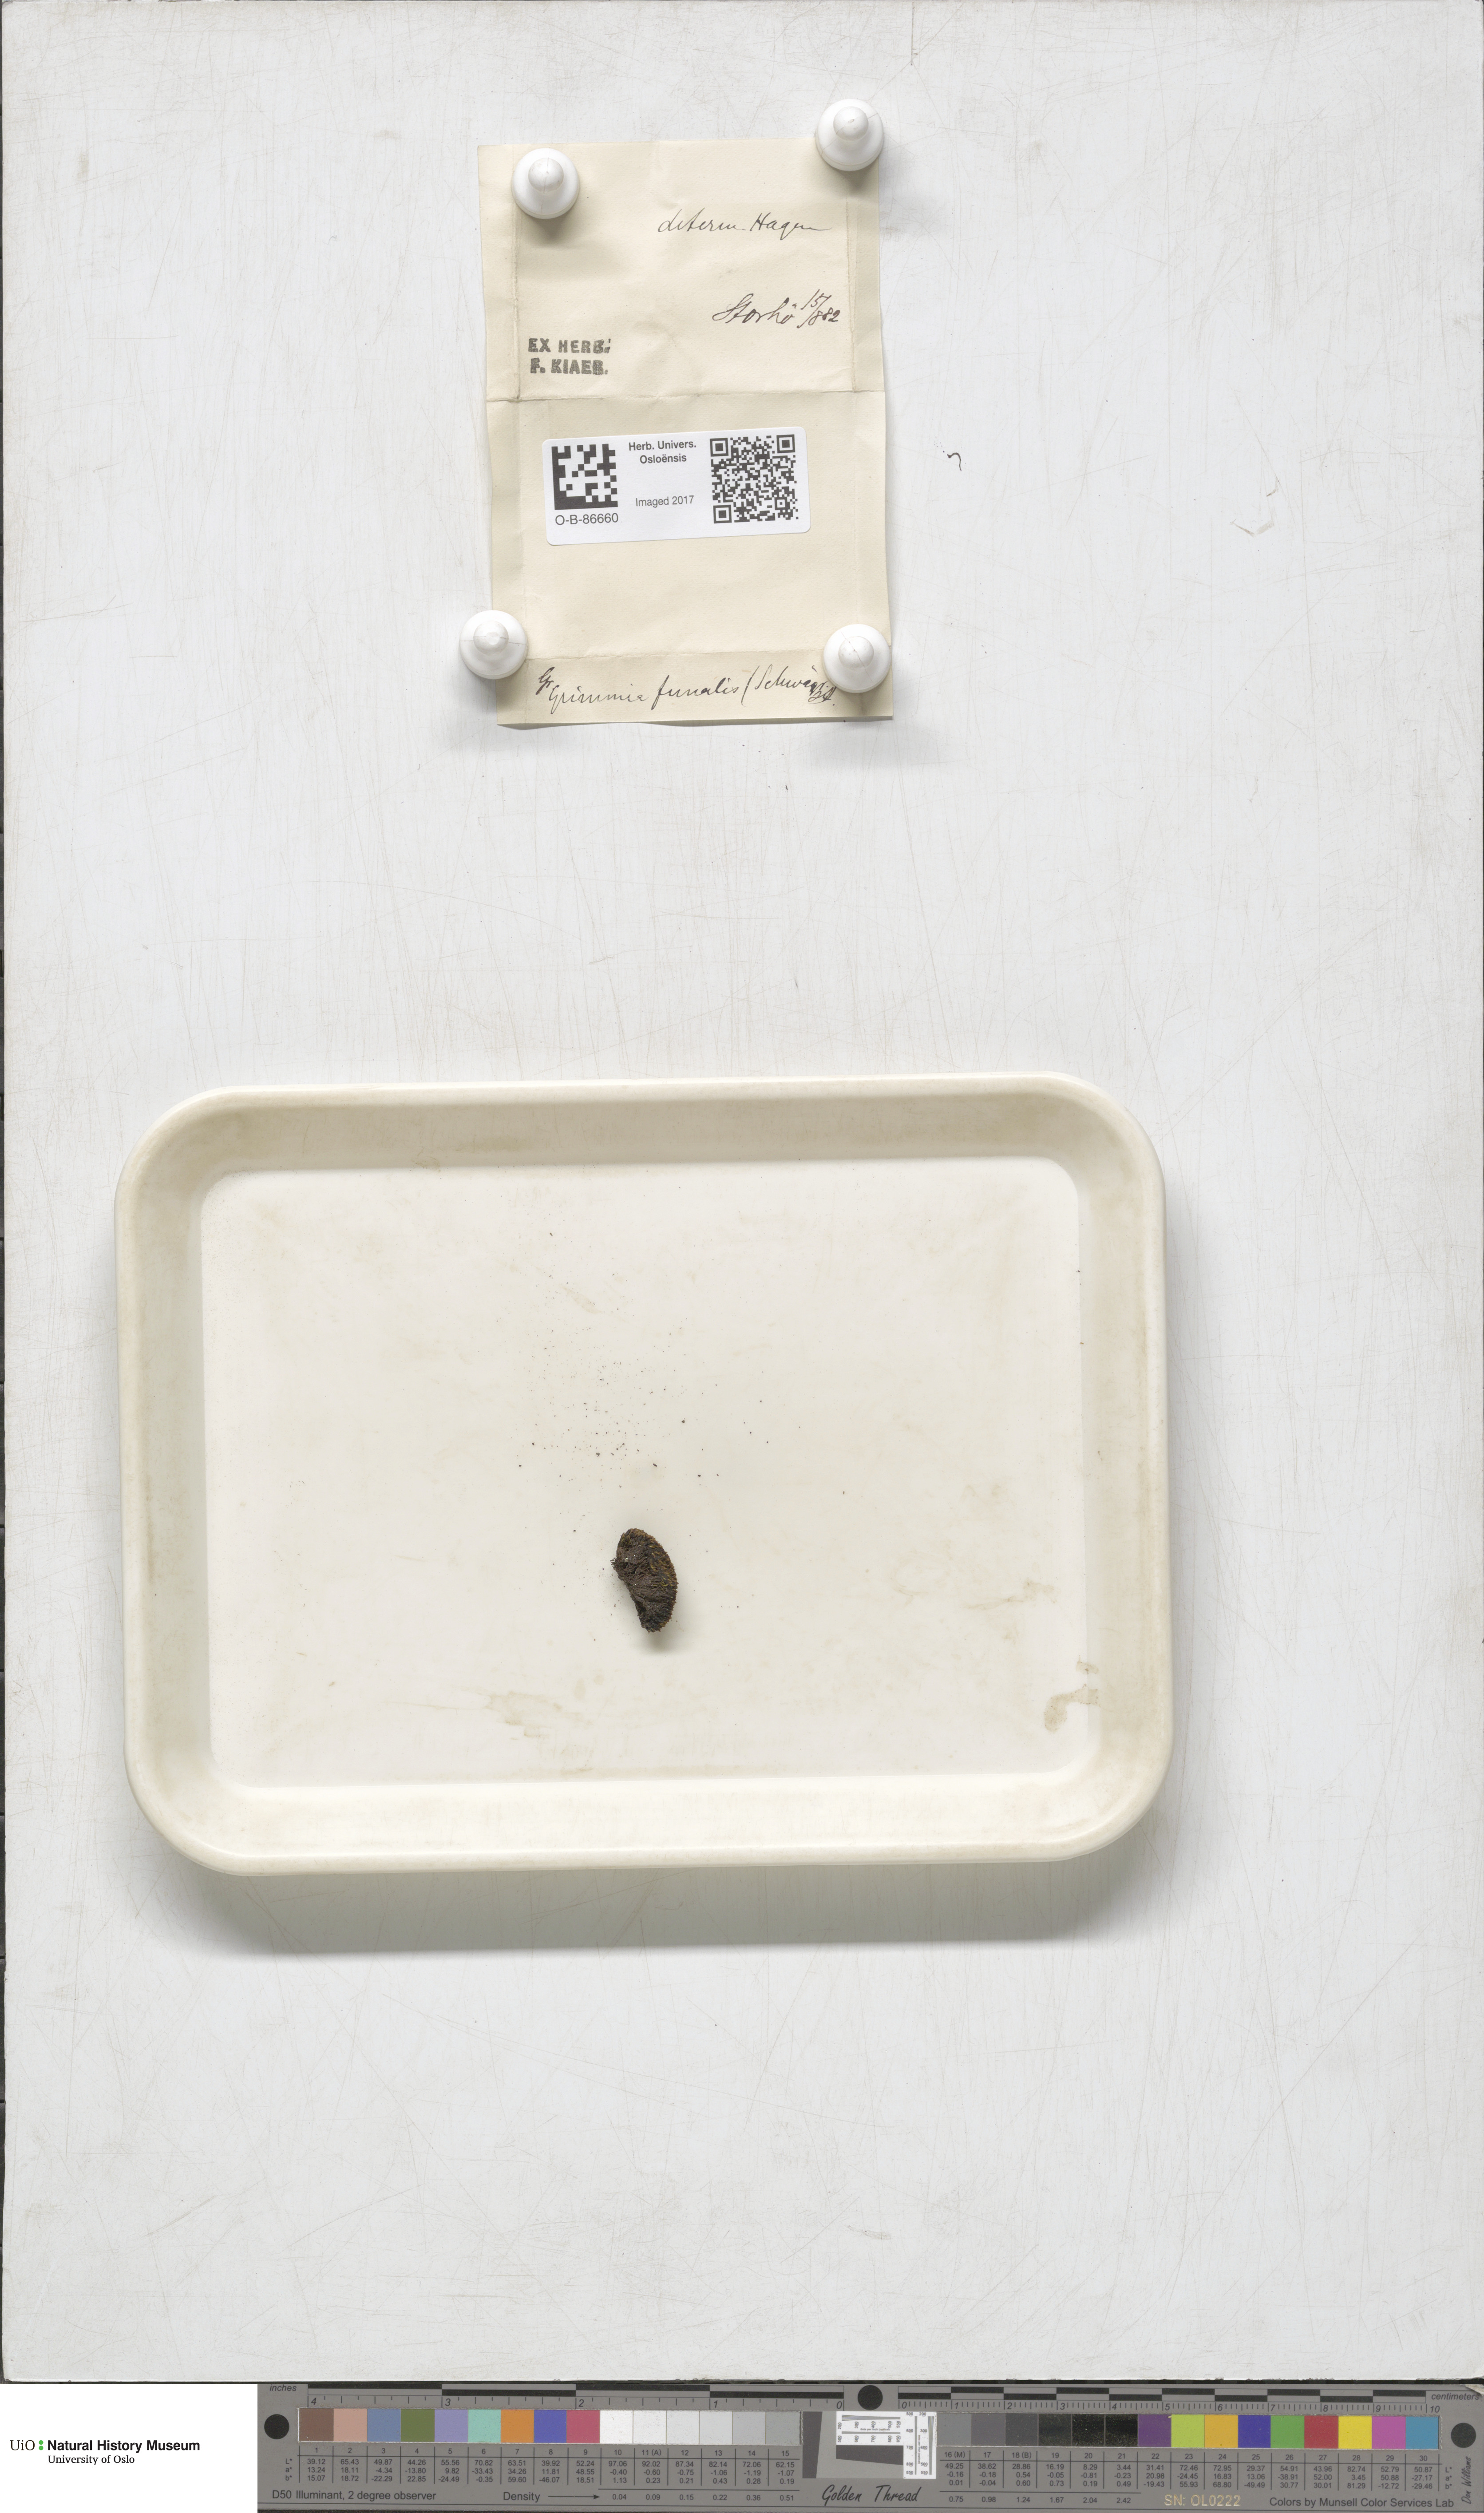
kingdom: Plantae
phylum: Bryophyta
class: Bryopsida
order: Grimmiales
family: Grimmiaceae
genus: Grimmia
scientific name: Grimmia funalis
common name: String grimmia
